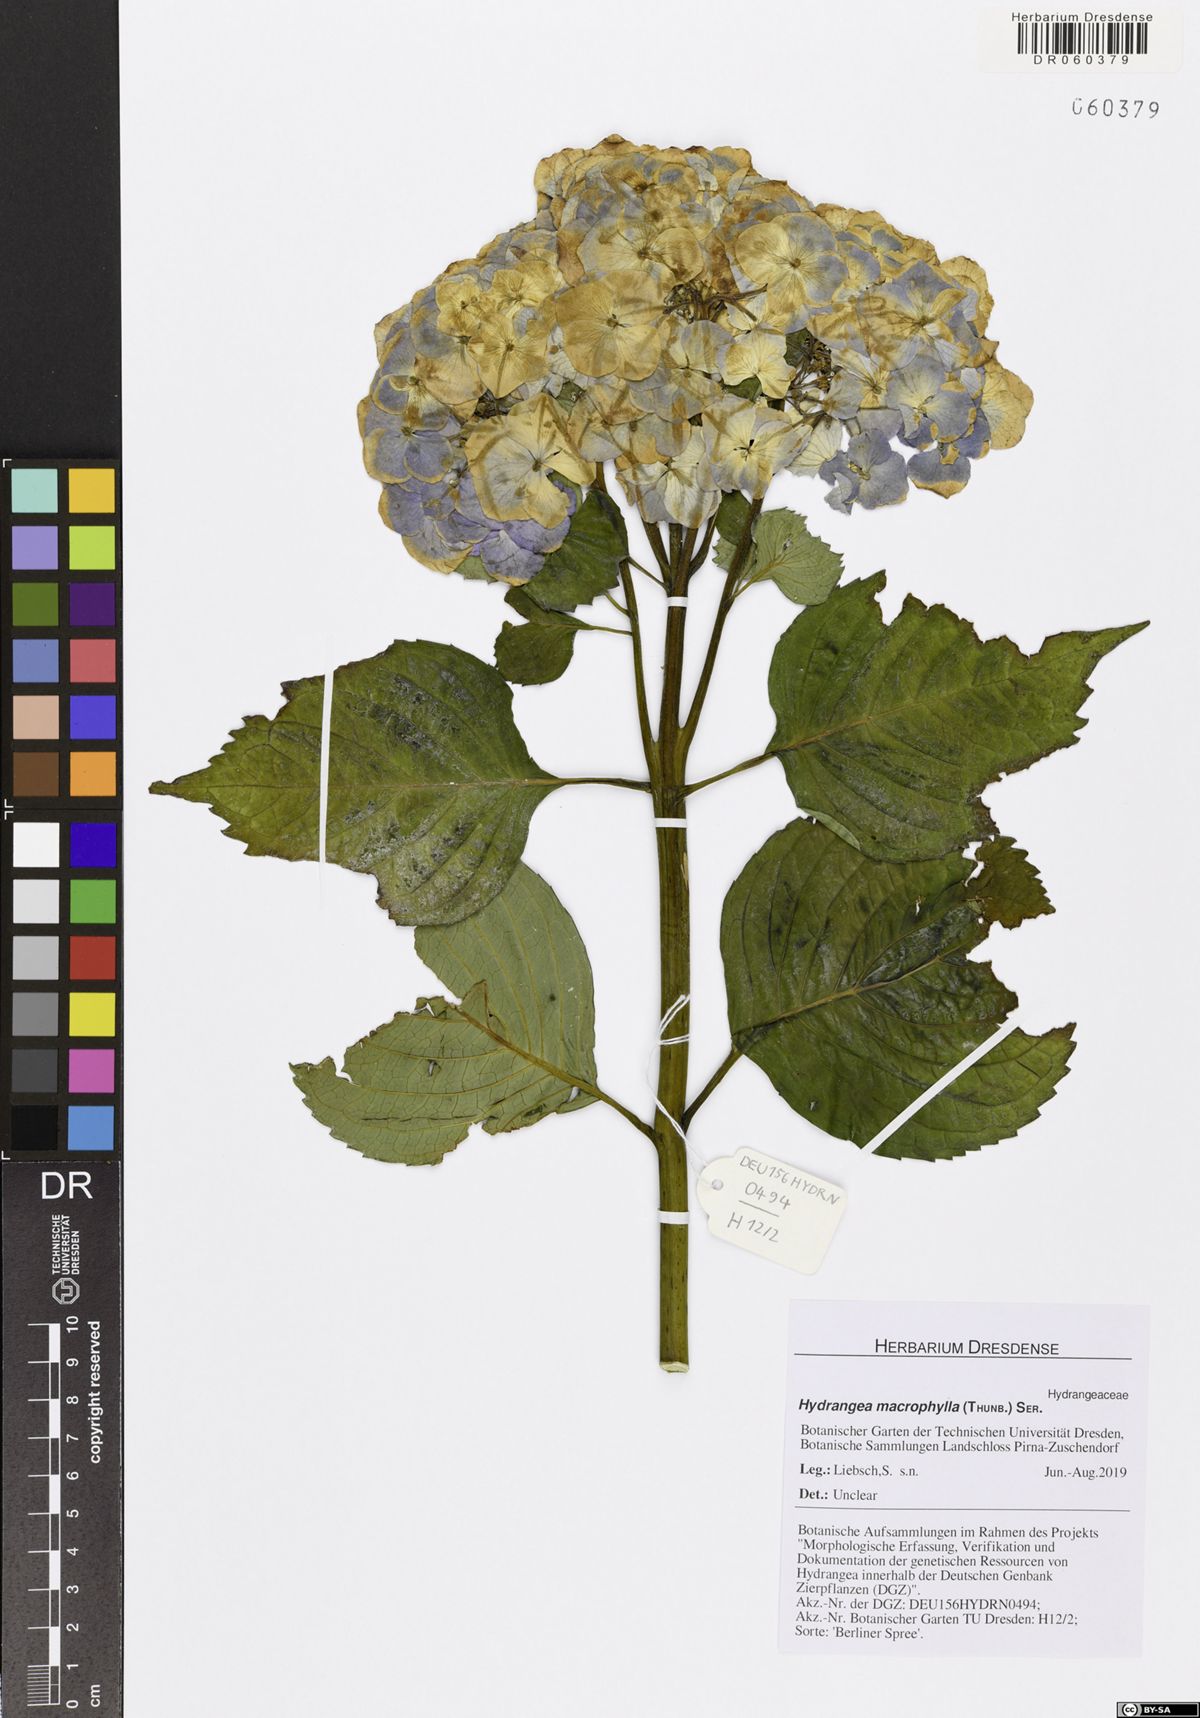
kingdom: Plantae
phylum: Tracheophyta
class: Magnoliopsida
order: Cornales
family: Hydrangeaceae
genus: Hydrangea
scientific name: Hydrangea macrophylla
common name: Hydrangea
